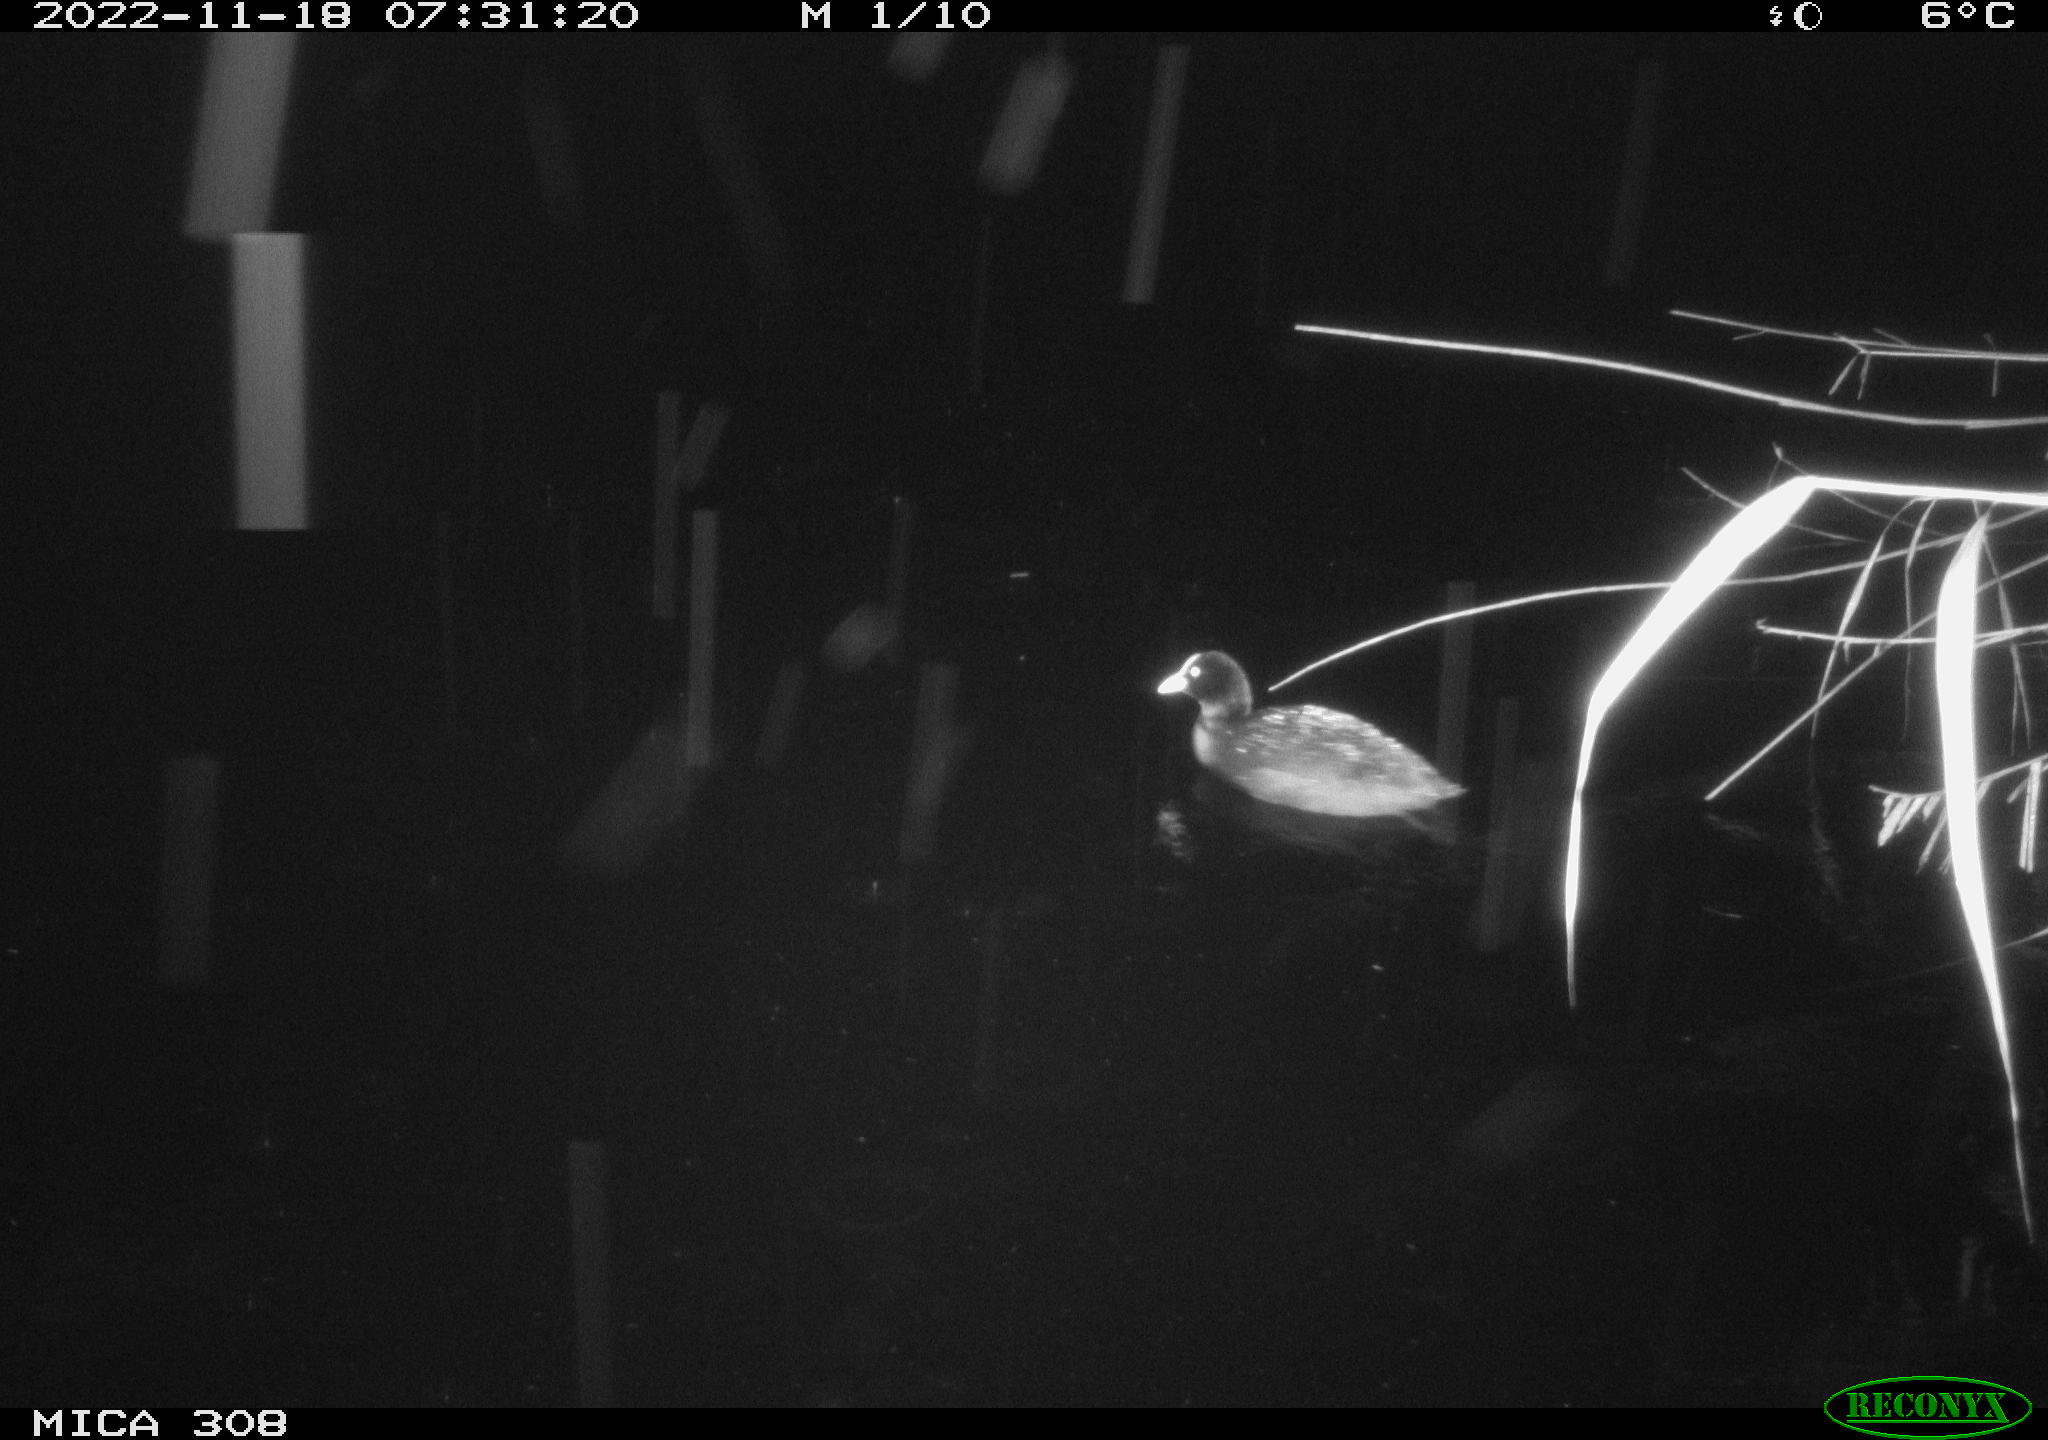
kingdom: Animalia
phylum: Chordata
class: Aves
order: Anseriformes
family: Anatidae
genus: Anas
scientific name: Anas
